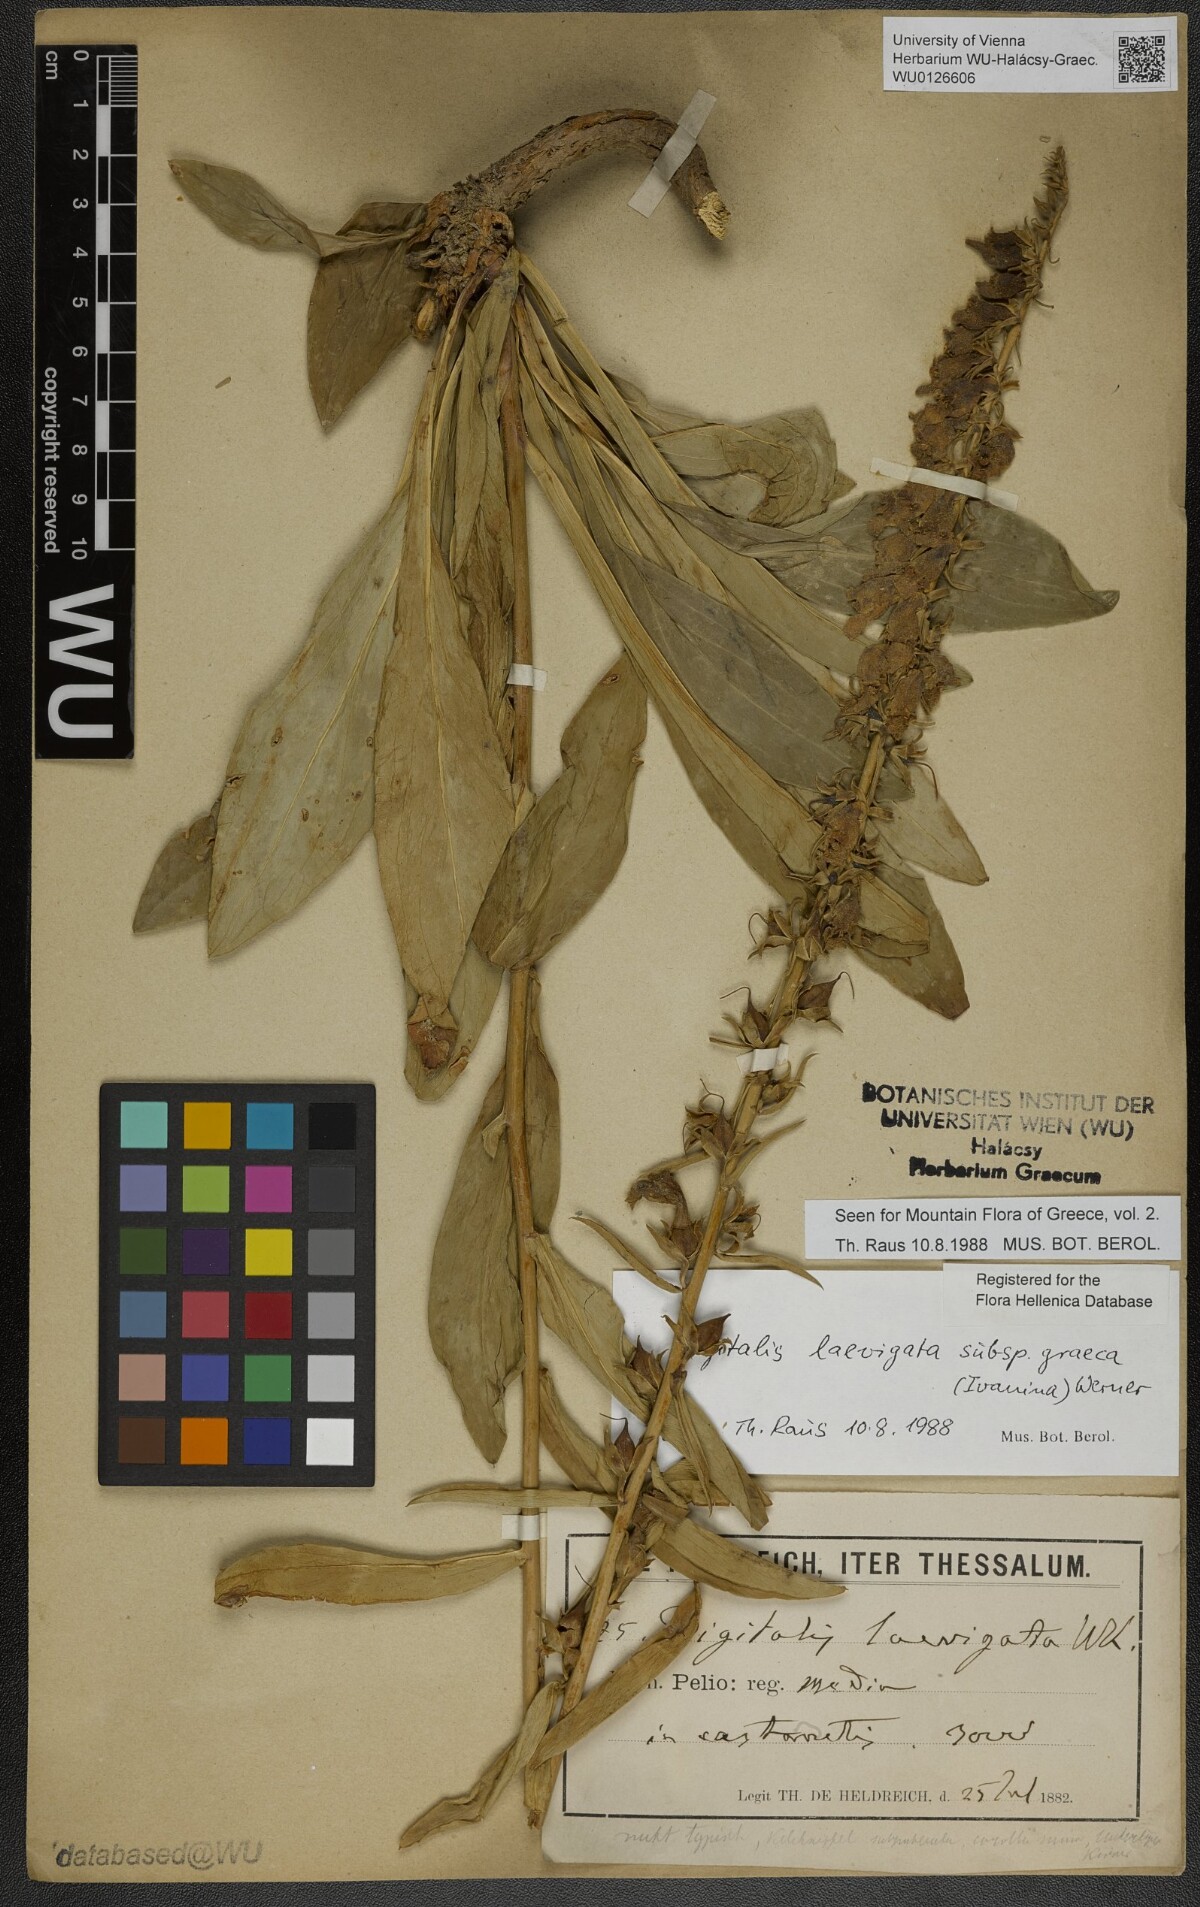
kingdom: Plantae
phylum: Tracheophyta
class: Magnoliopsida
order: Lamiales
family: Plantaginaceae
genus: Digitalis
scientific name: Digitalis laevigata
